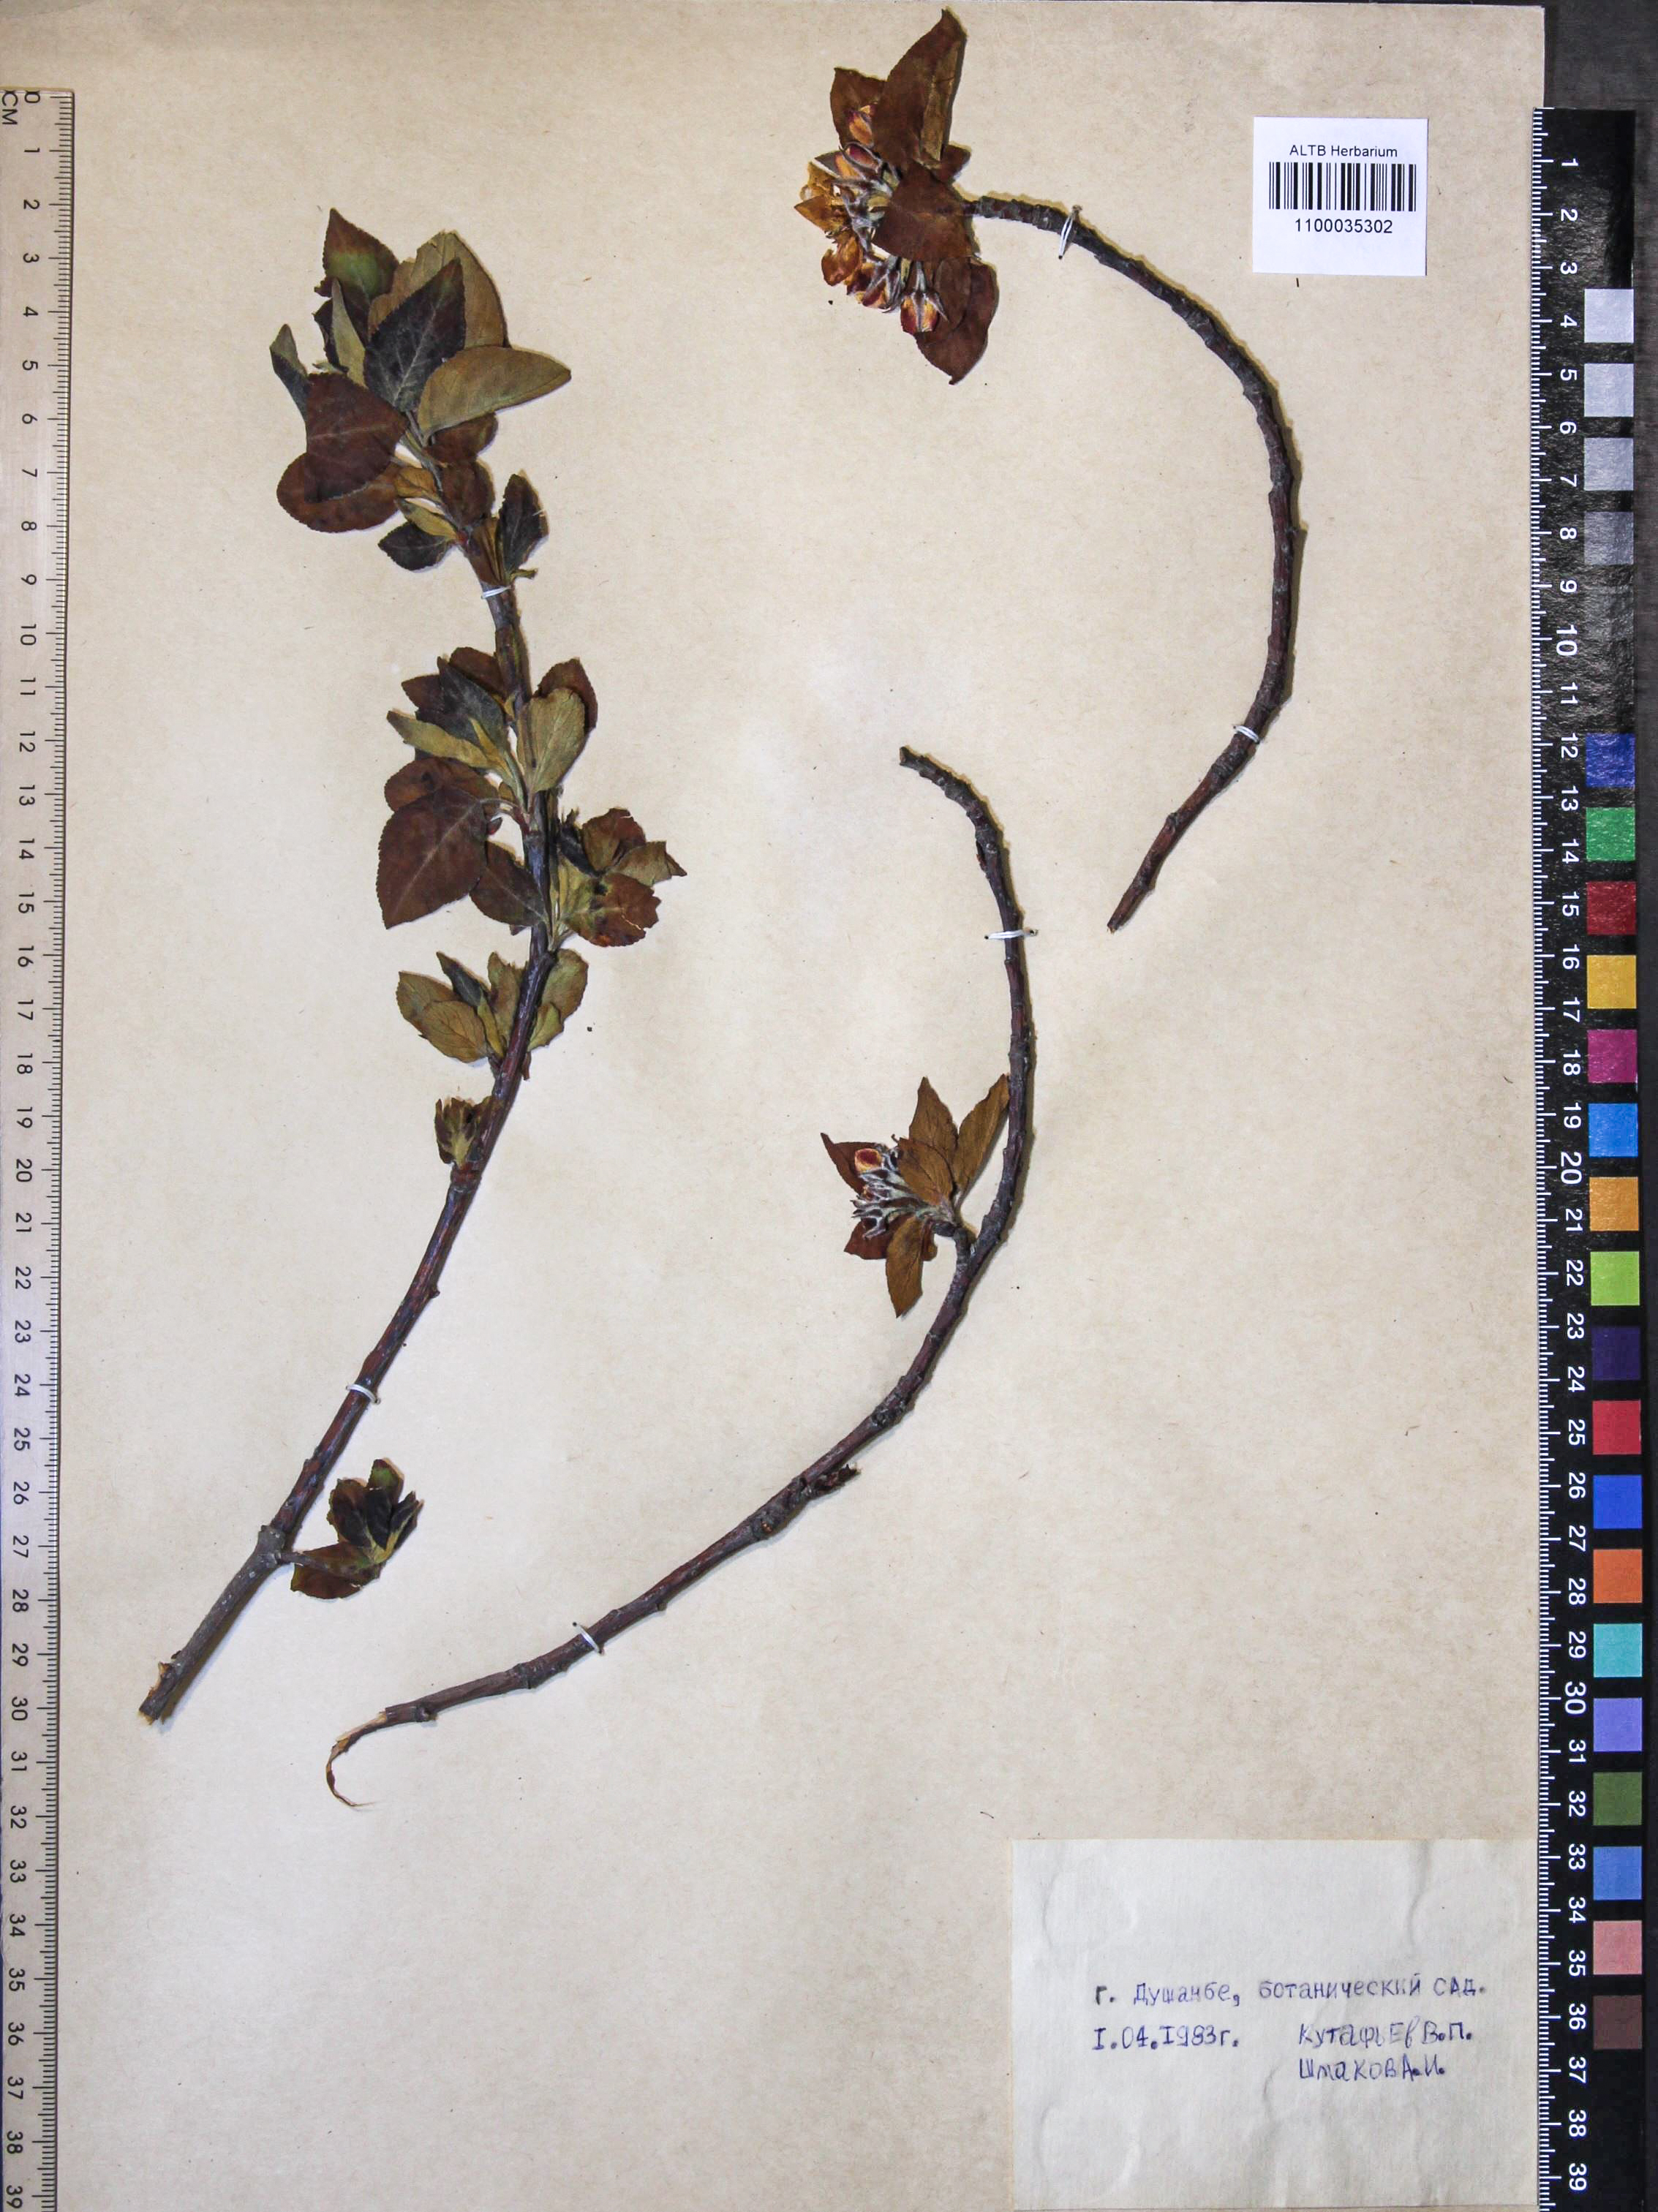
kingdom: Plantae
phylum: Tracheophyta
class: Magnoliopsida
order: Rosales
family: Rosaceae
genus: Malus
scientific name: Malus domestica
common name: Apple
